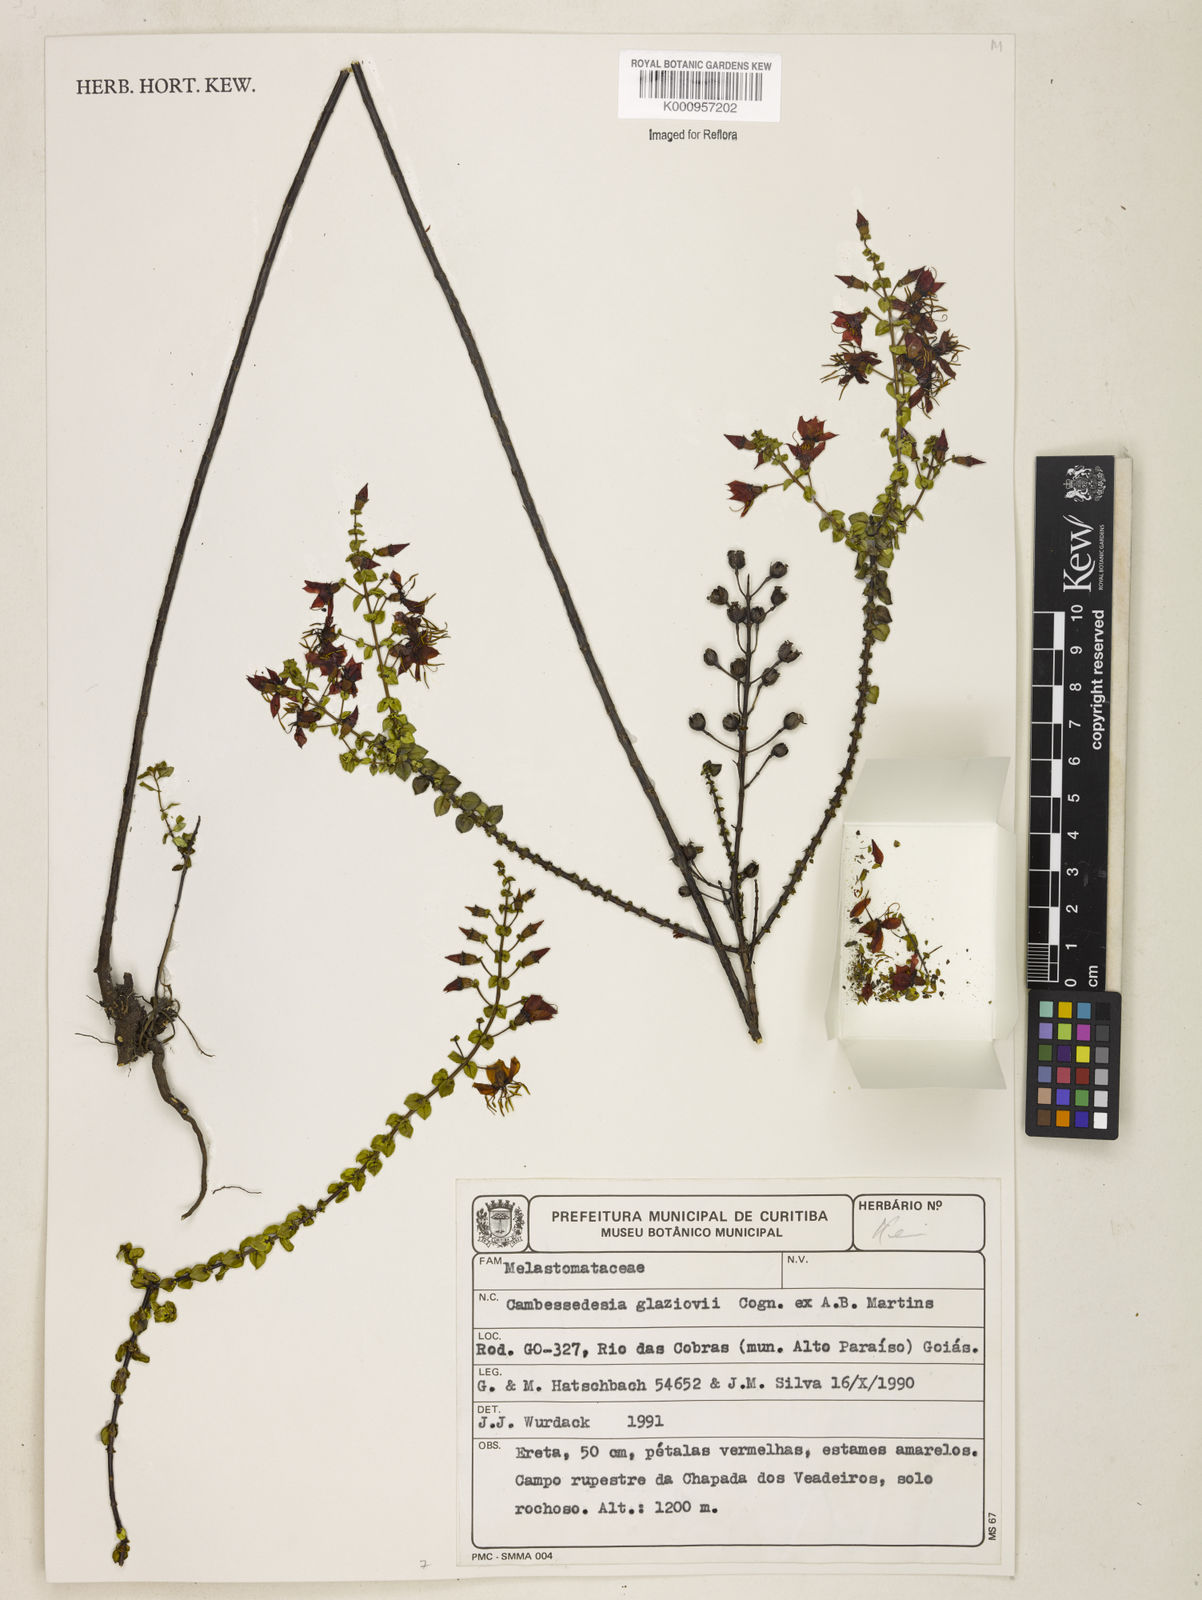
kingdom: Plantae
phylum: Tracheophyta
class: Magnoliopsida
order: Myrtales
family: Melastomataceae
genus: Cambessedesia
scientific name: Cambessedesia glaziovii
